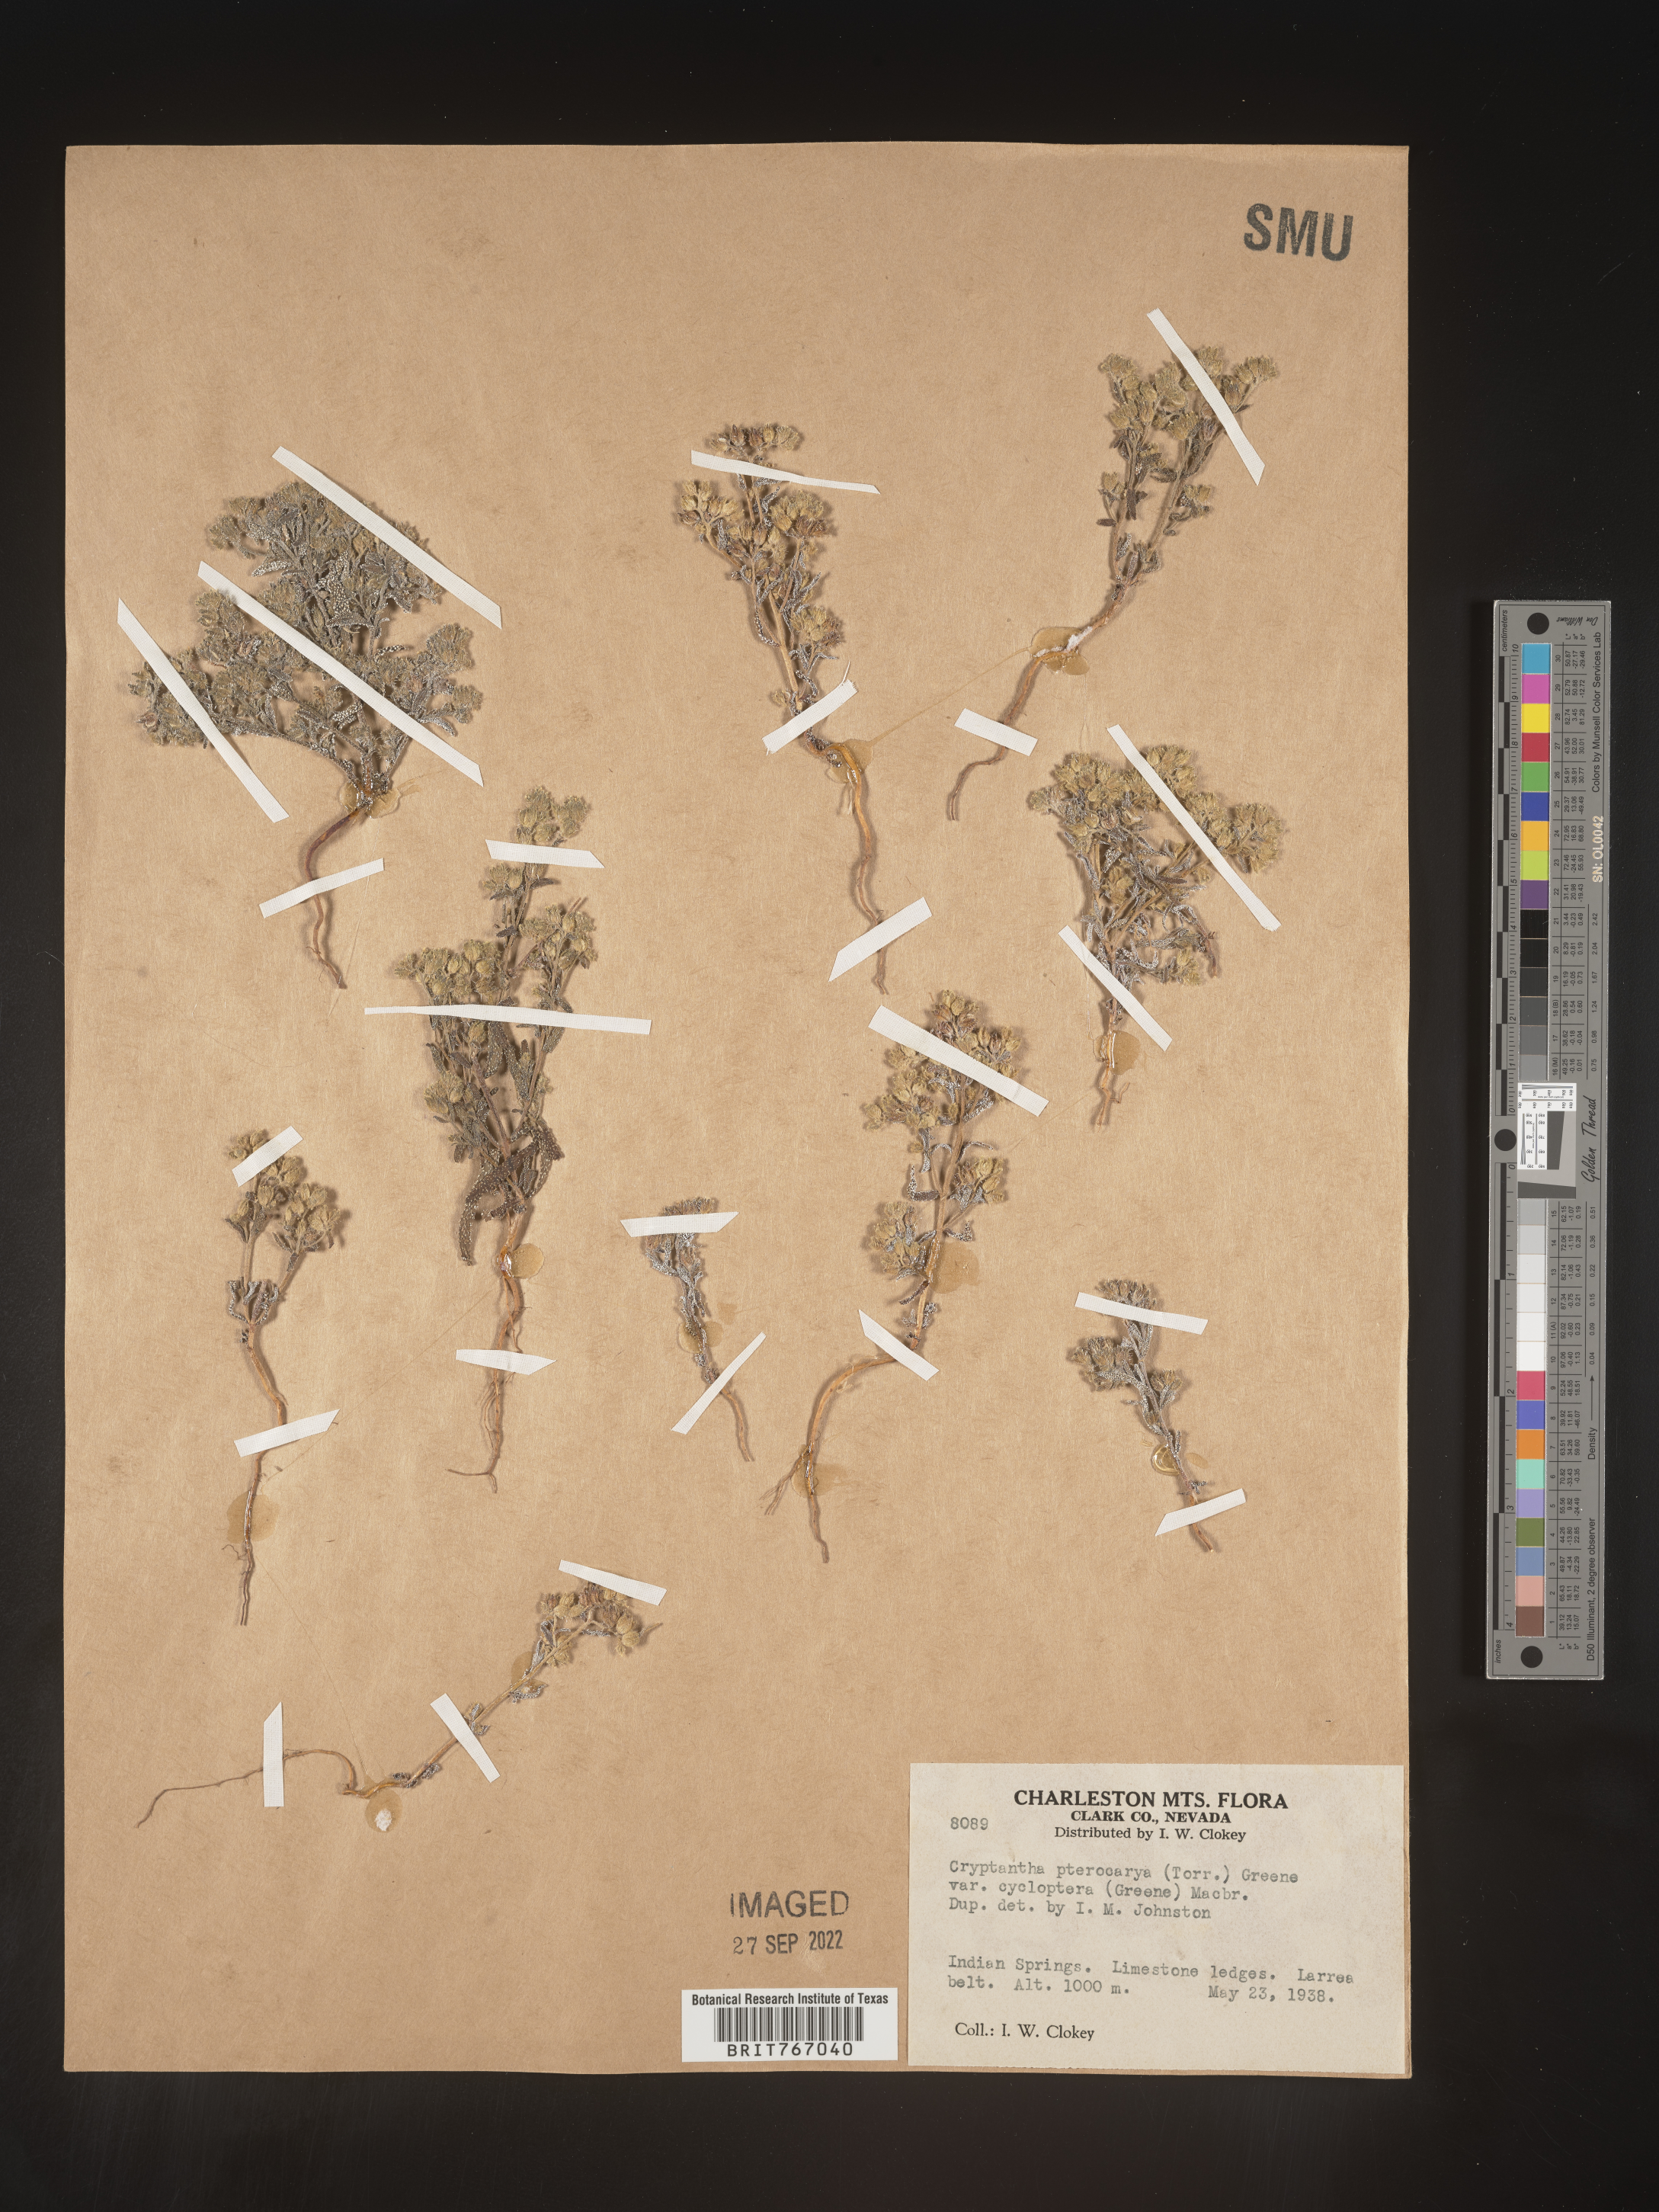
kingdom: Plantae
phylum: Tracheophyta
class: Magnoliopsida
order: Boraginales
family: Boraginaceae
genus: Cryptantha
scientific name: Cryptantha pterocarya
